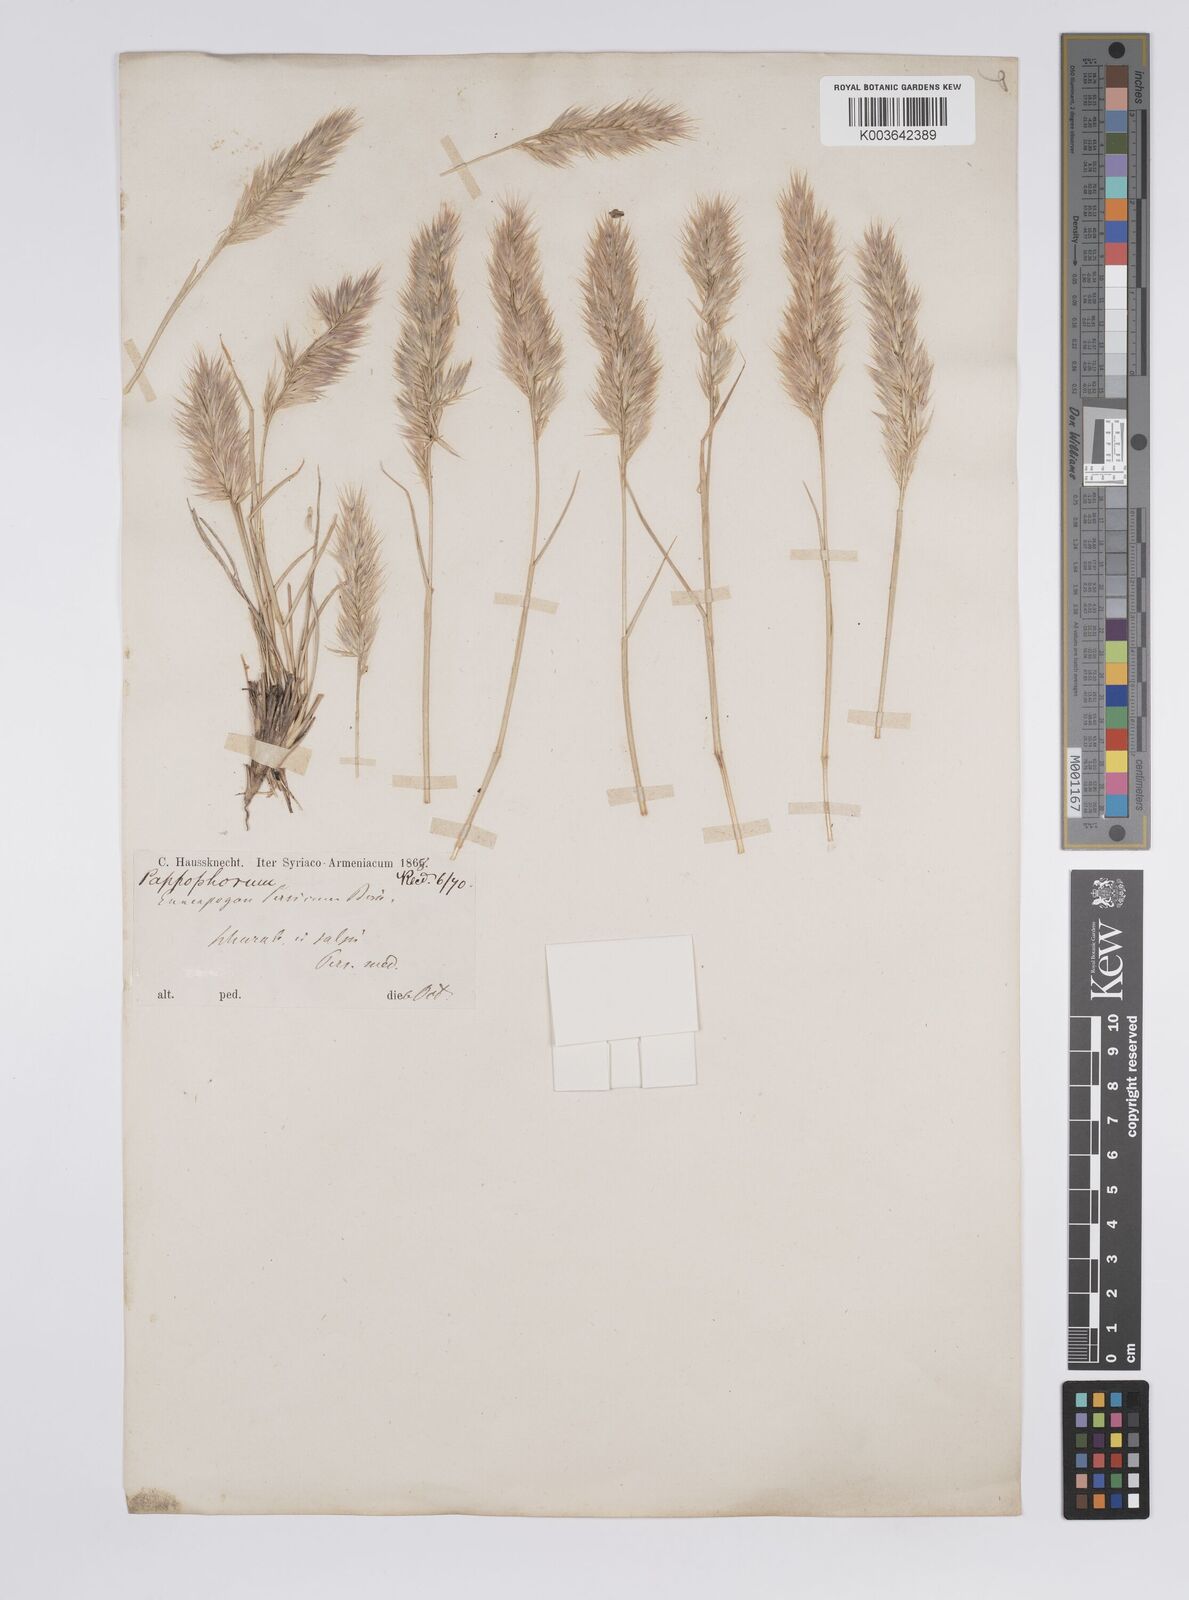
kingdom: Plantae
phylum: Tracheophyta
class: Liliopsida
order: Poales
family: Poaceae
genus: Enneapogon
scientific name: Enneapogon persicus
